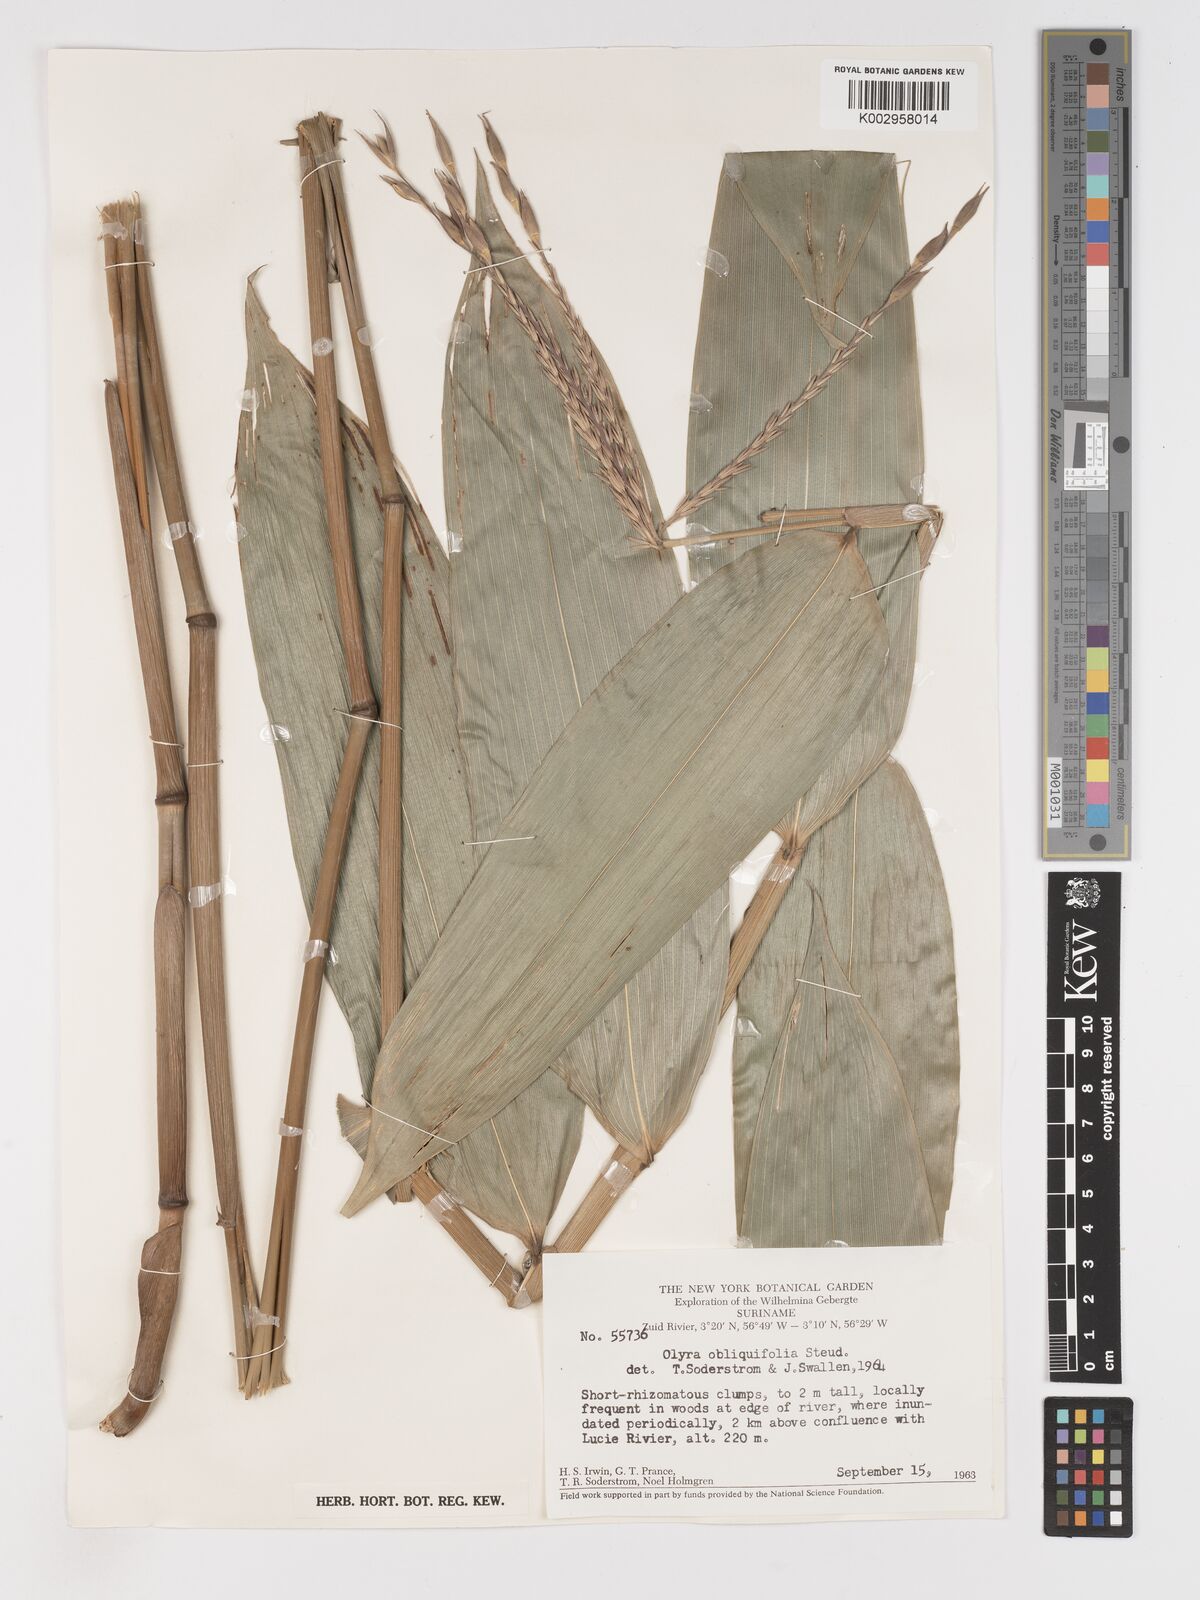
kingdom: Plantae
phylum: Tracheophyta
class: Liliopsida
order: Poales
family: Poaceae
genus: Olyra
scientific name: Olyra obliquifolia
